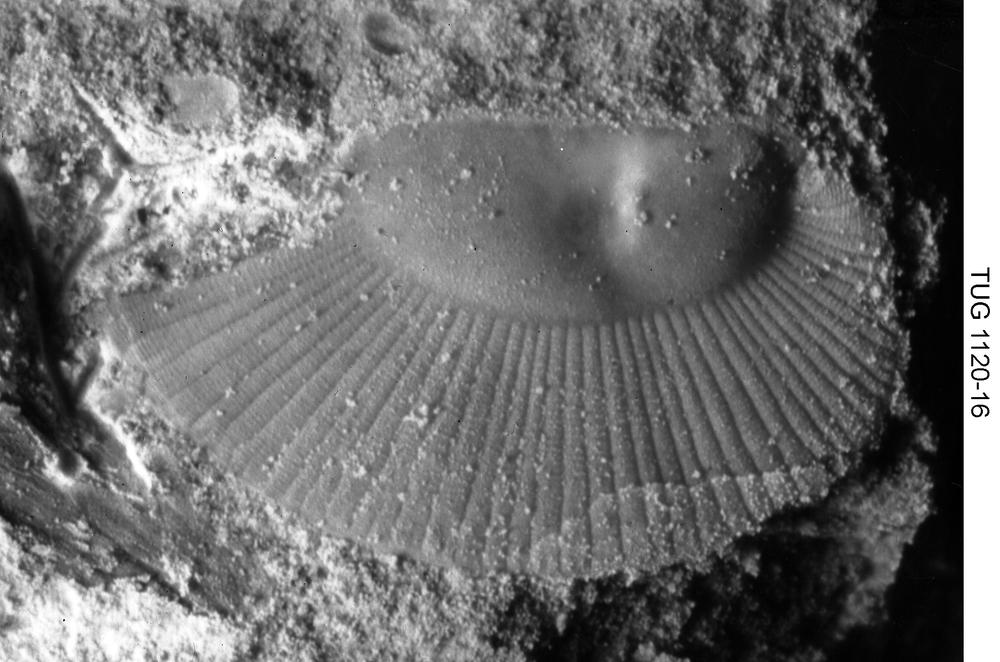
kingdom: Animalia
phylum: Arthropoda
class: Ostracoda
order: Palaeocopida
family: Oepikiidae
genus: Oepikium
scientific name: Oepikium
